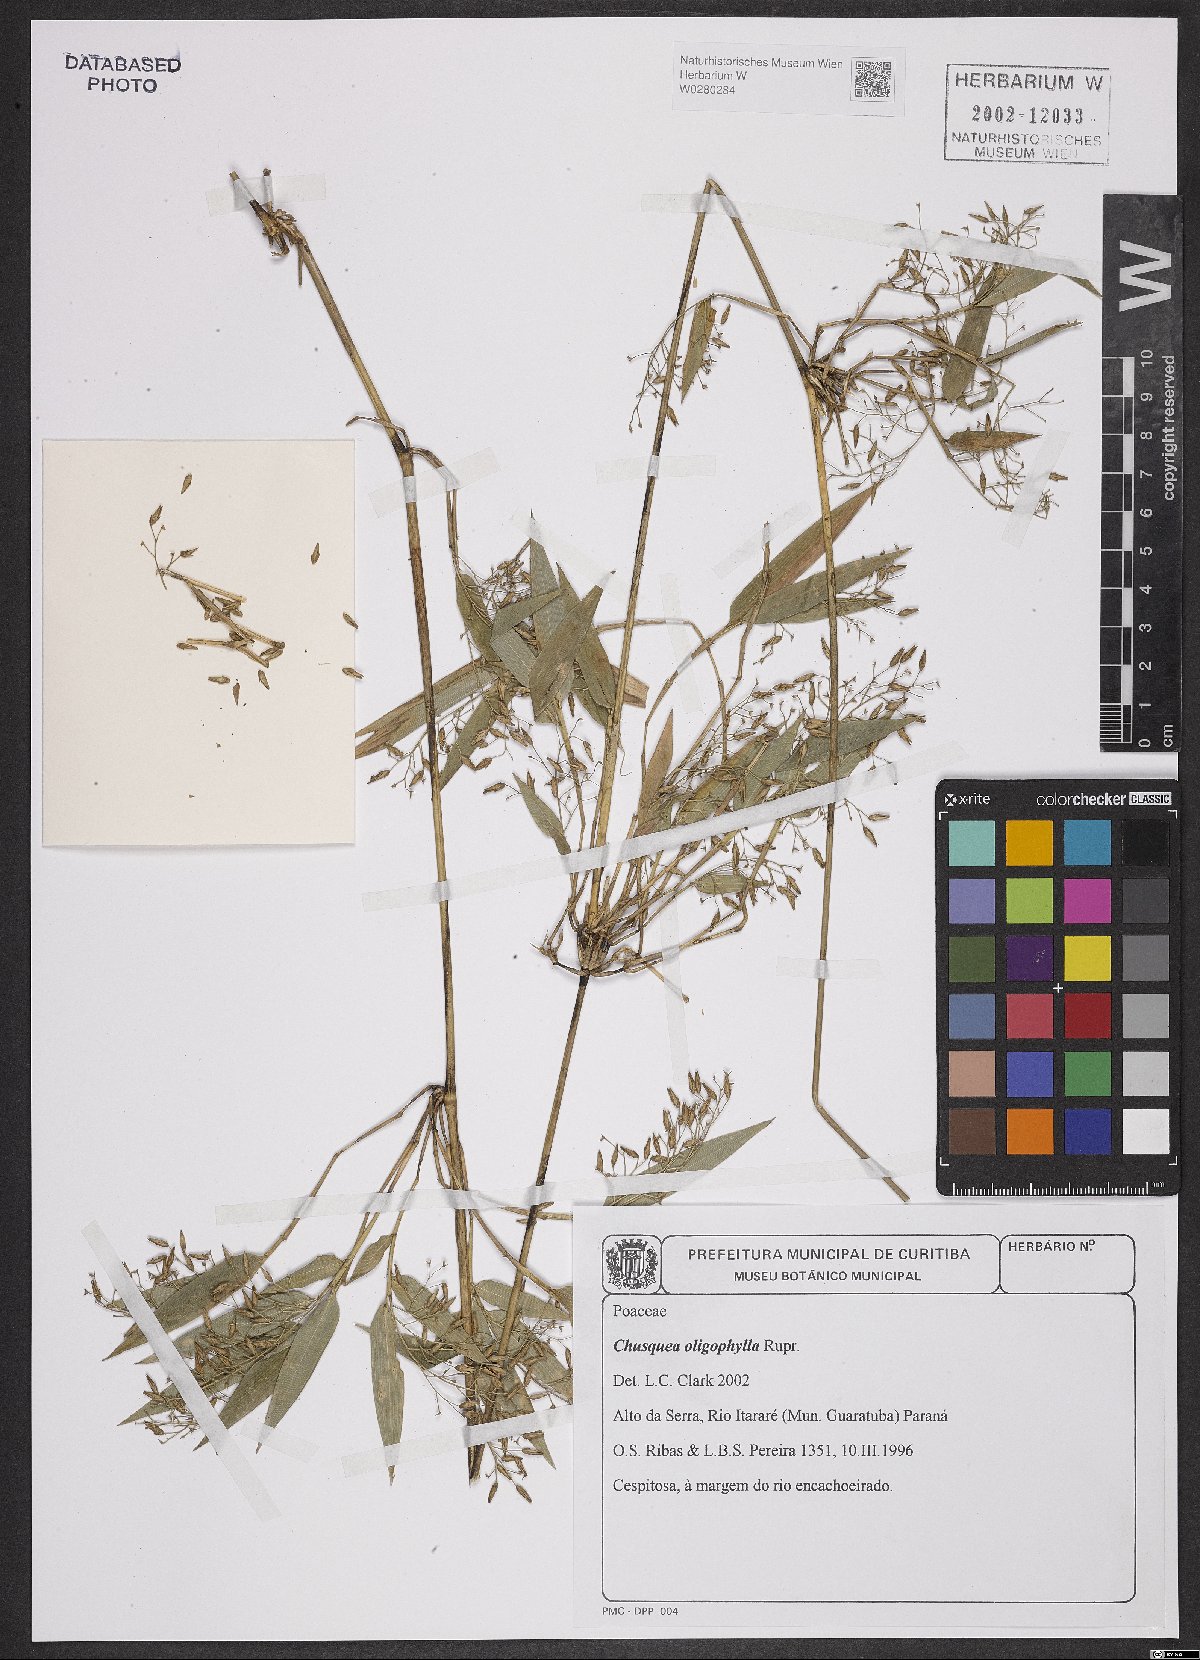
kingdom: Plantae
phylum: Tracheophyta
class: Liliopsida
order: Poales
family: Poaceae
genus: Chusquea
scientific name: Chusquea oligophylla
